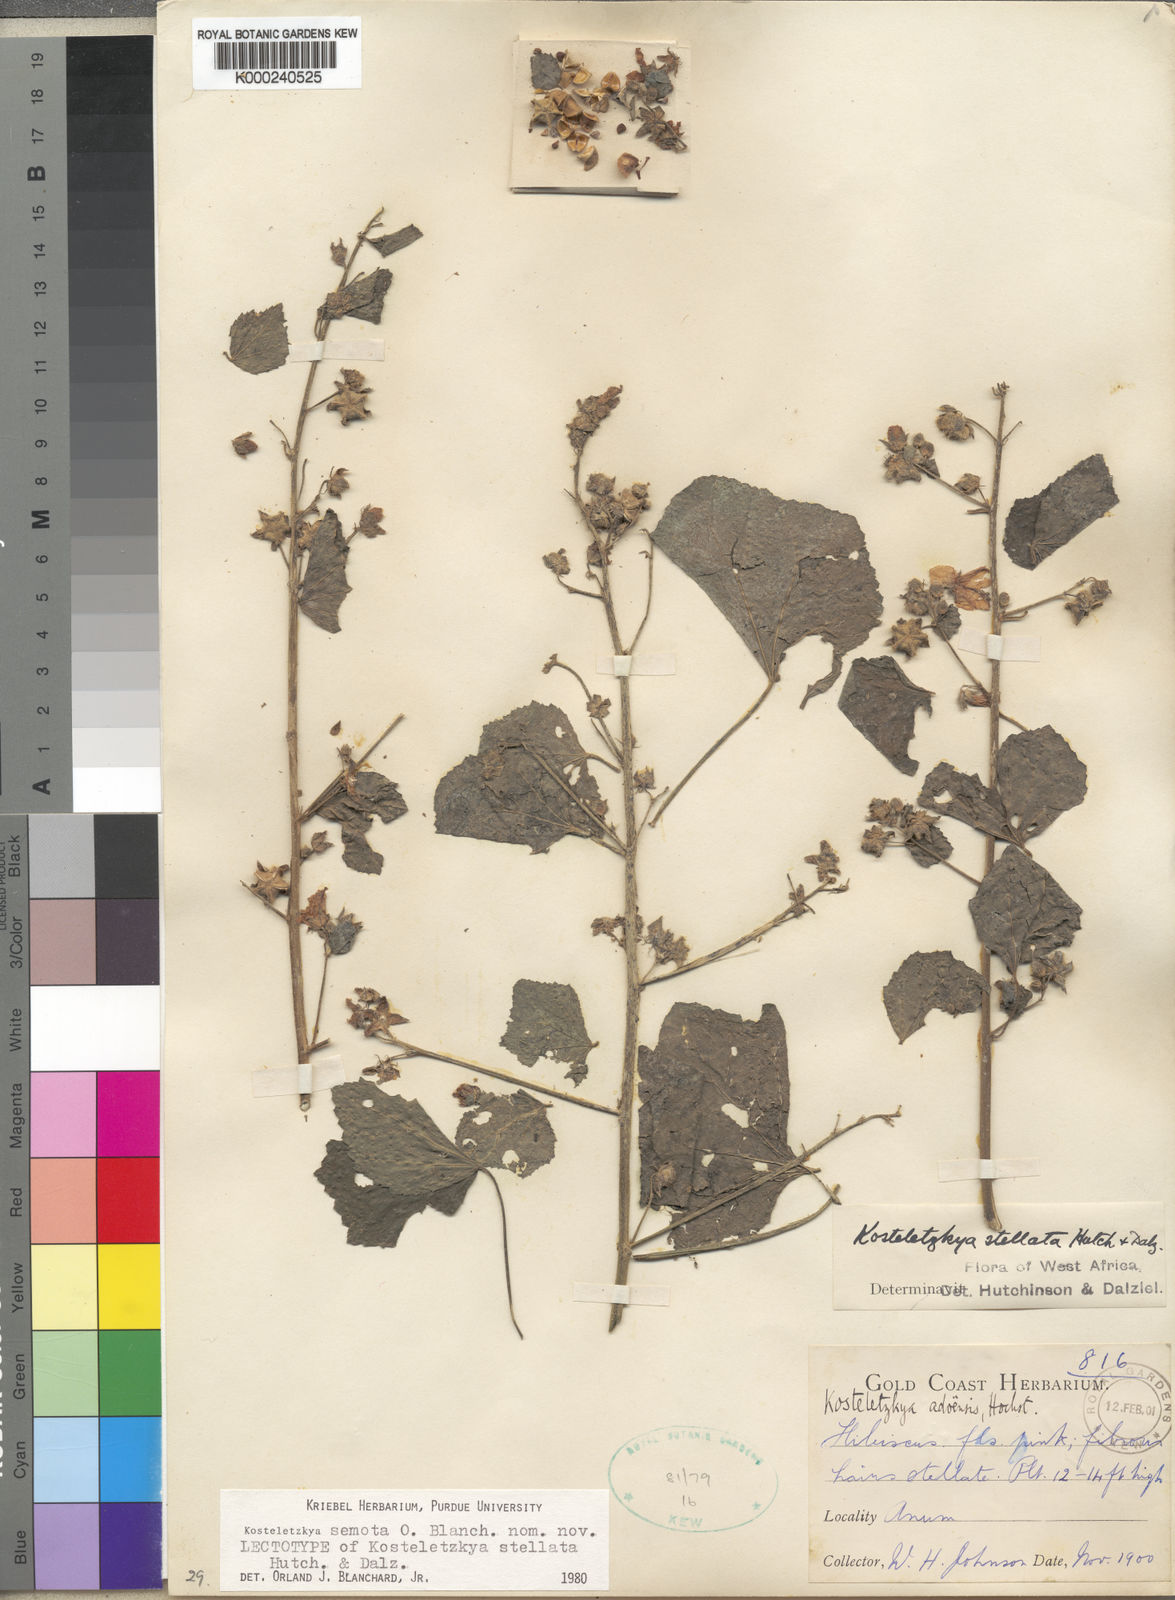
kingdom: Plantae
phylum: Tracheophyta
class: Magnoliopsida
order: Malvales
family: Malvaceae
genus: Kosteletzkya
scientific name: Kosteletzkya
